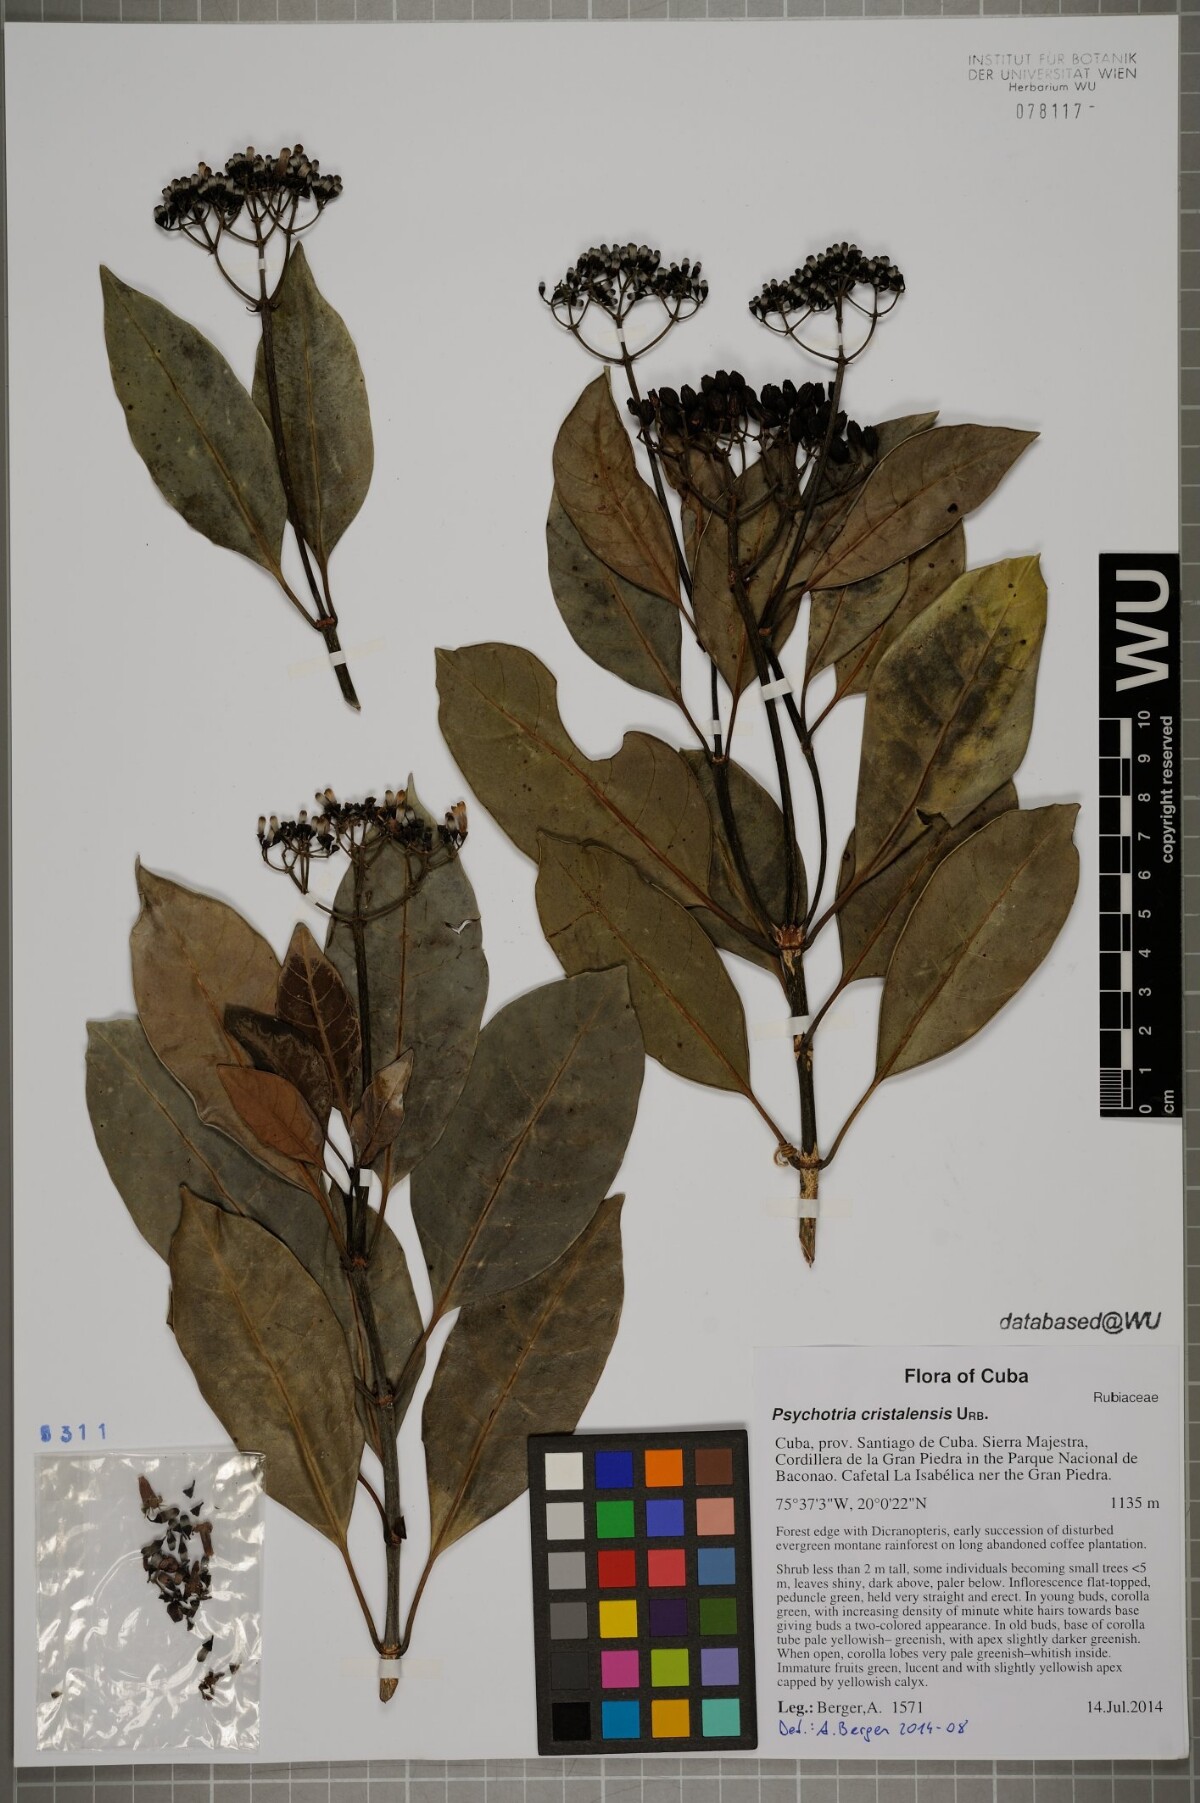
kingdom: Plantae
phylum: Tracheophyta
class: Magnoliopsida
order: Gentianales
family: Rubiaceae
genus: Psychotria
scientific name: Psychotria cristalensis
